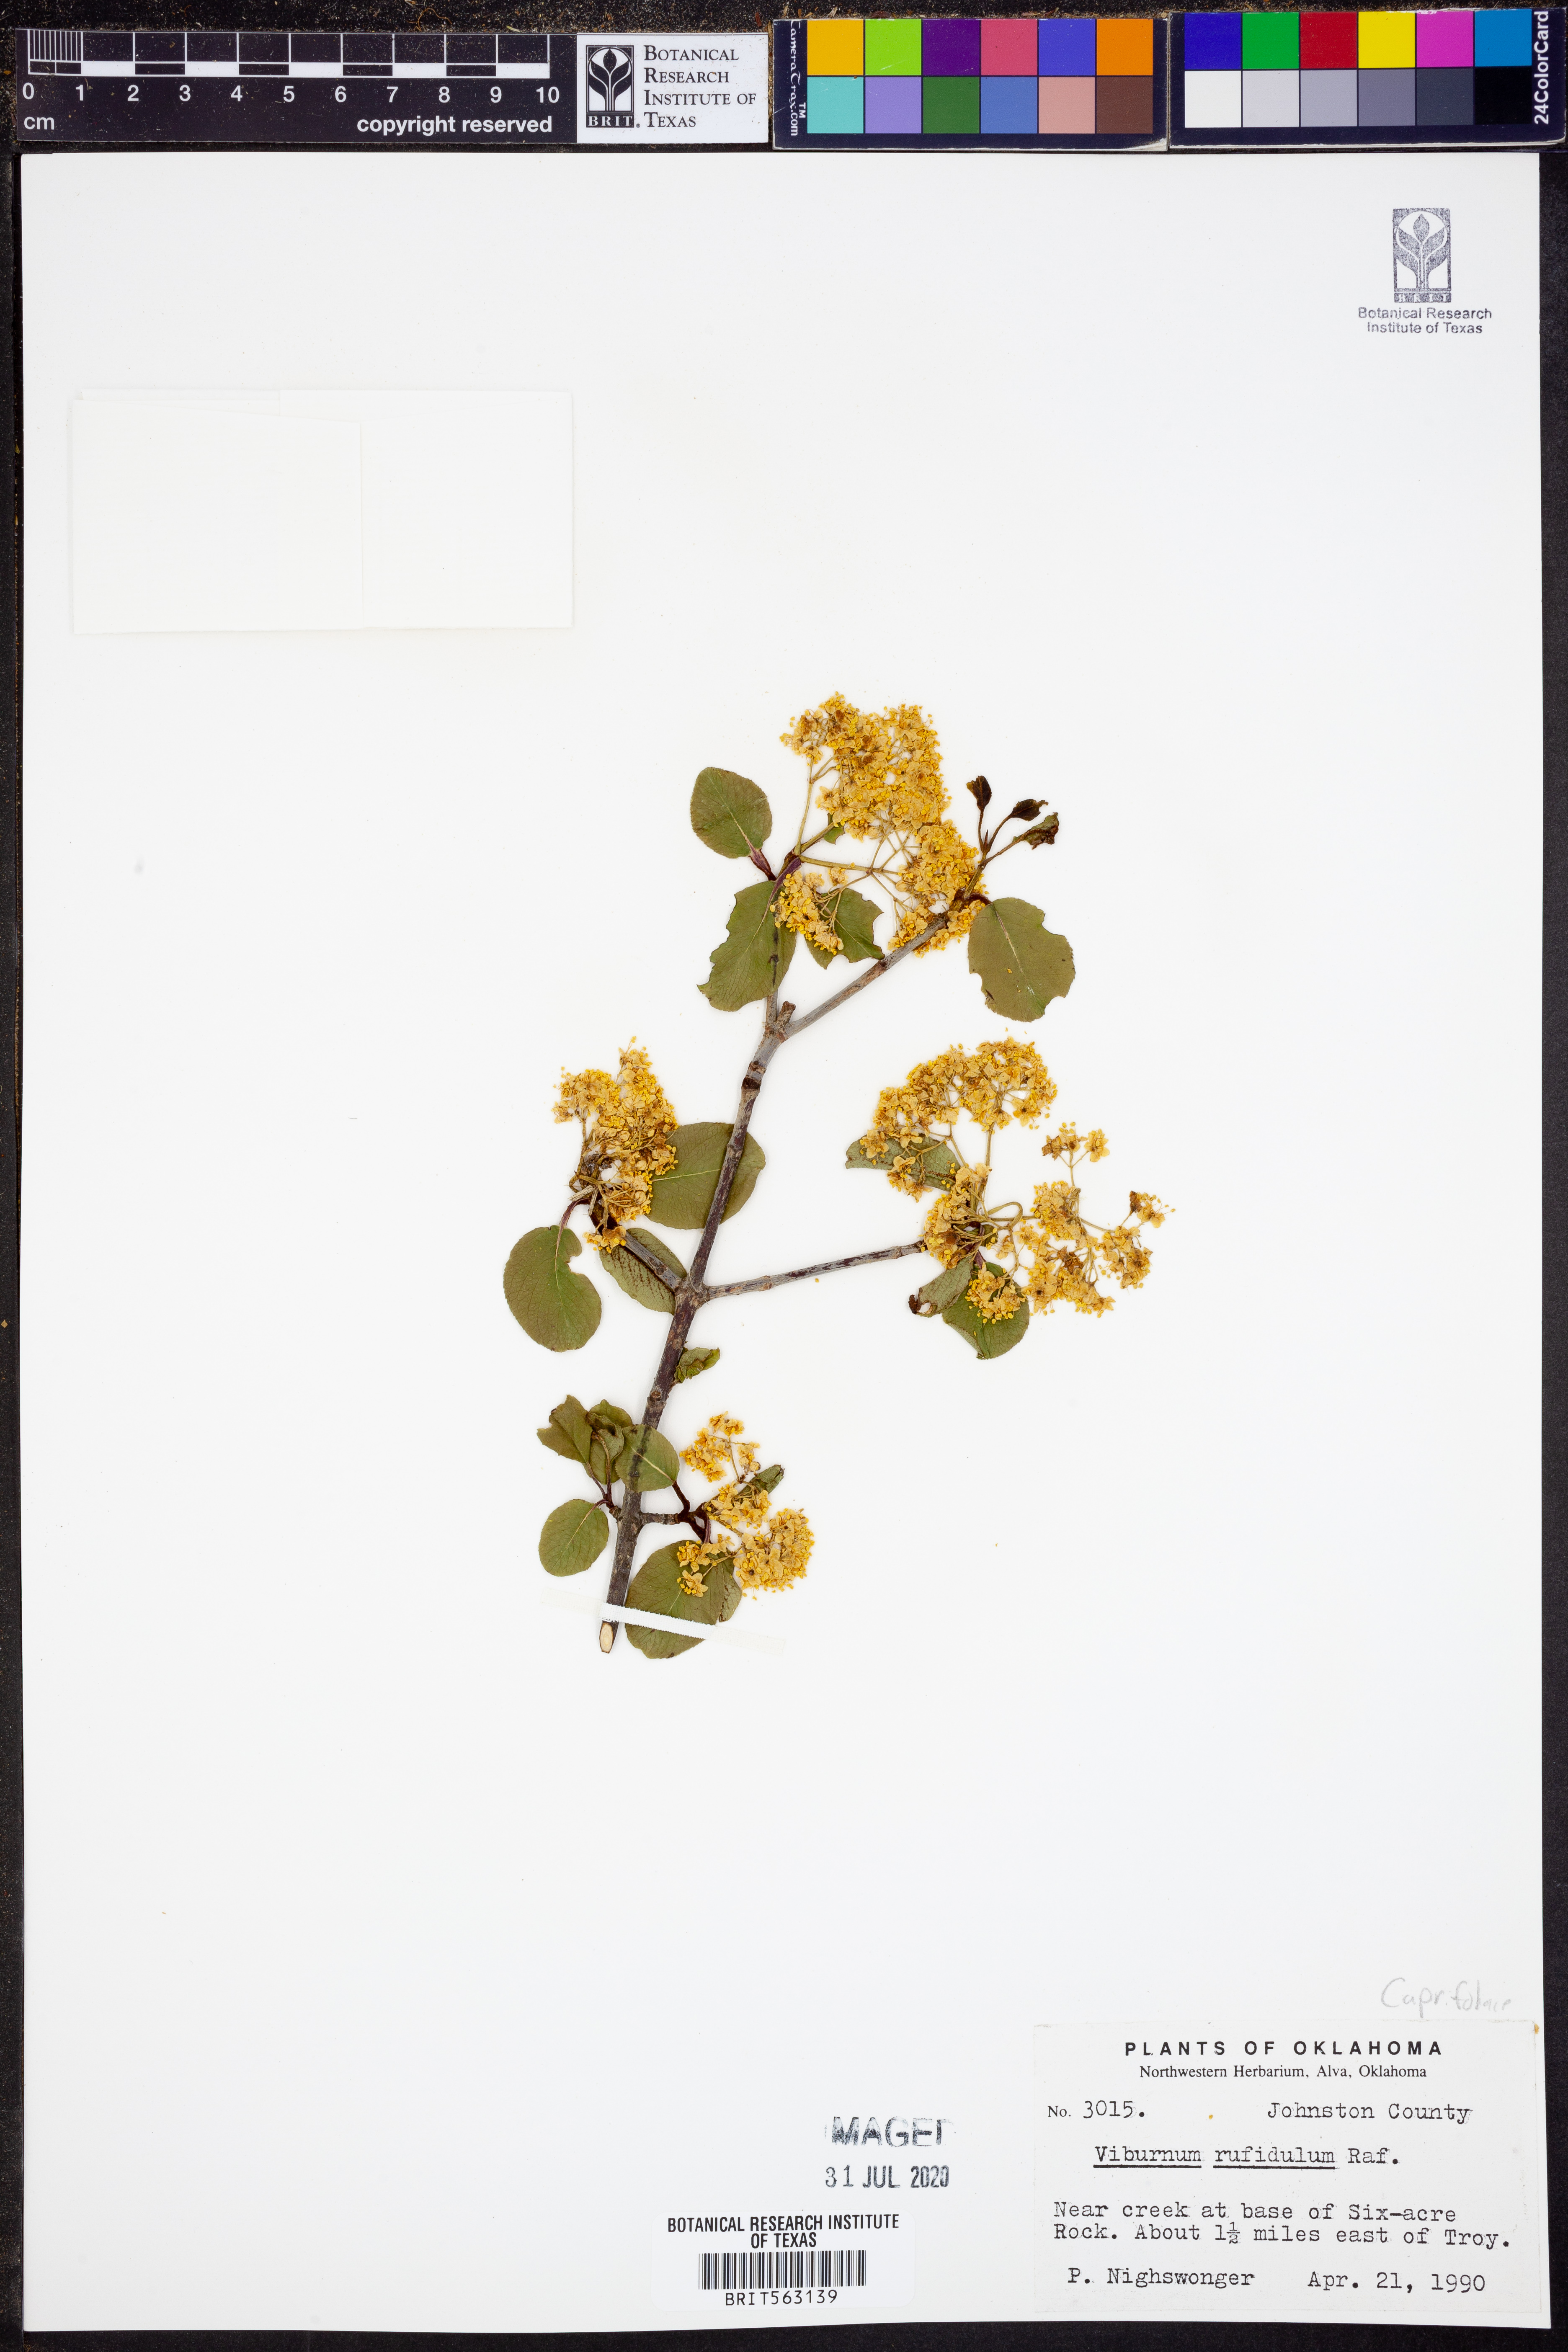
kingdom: Plantae
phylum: Tracheophyta
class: Magnoliopsida
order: Dipsacales
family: Viburnaceae
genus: Viburnum
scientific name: Viburnum rufidulum
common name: Blue haw
